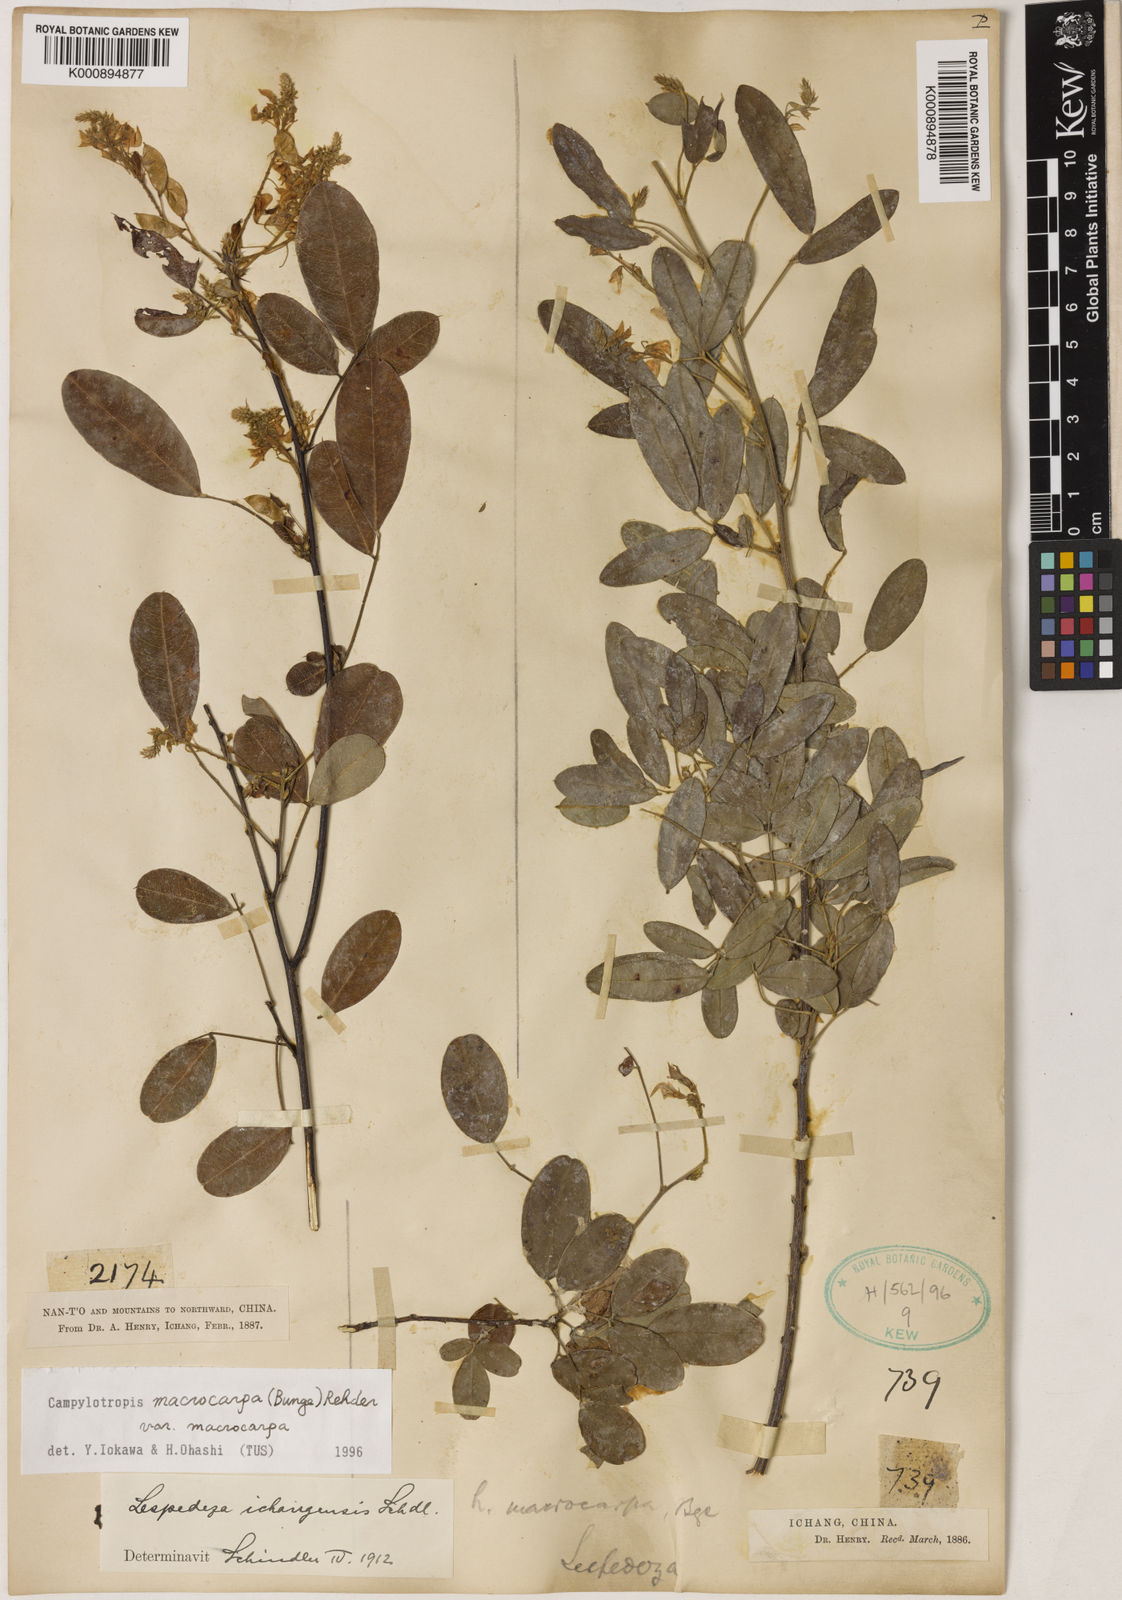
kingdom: Plantae
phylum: Tracheophyta
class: Magnoliopsida
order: Fabales
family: Fabaceae
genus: Campylotropis
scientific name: Campylotropis macrocarpa
